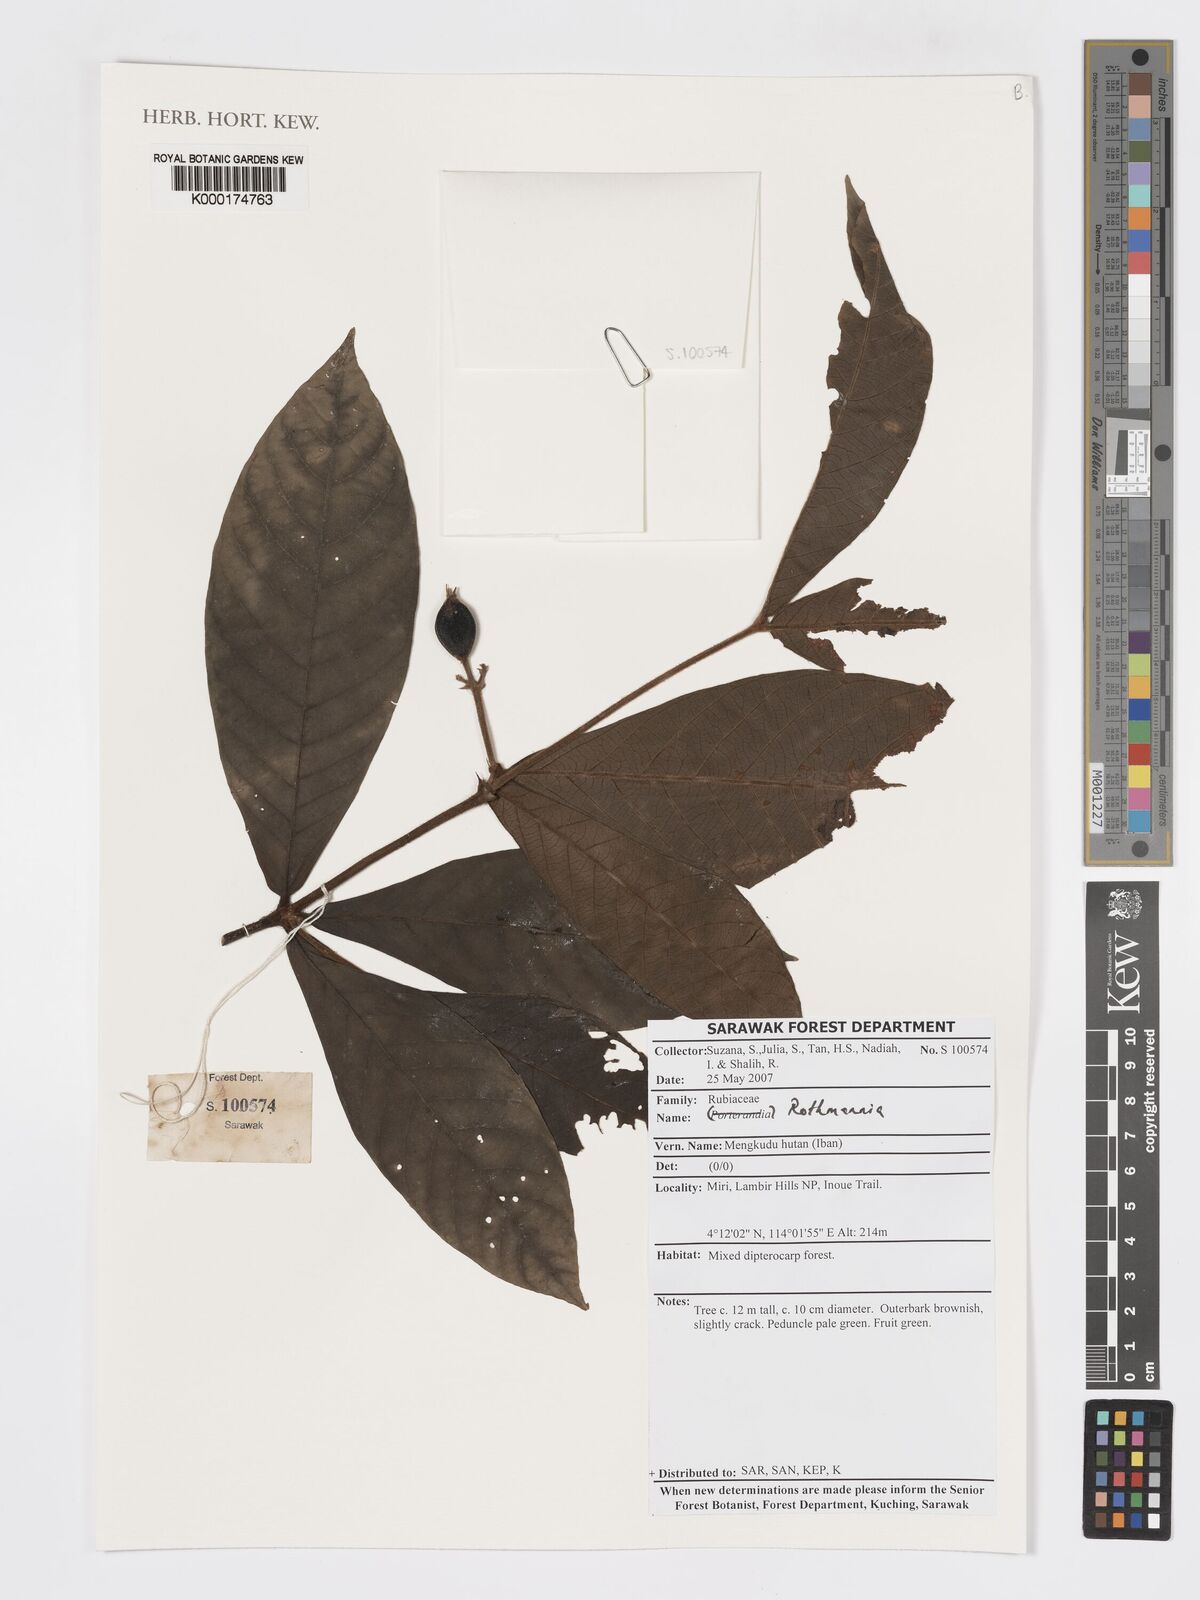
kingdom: Plantae
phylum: Tracheophyta
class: Magnoliopsida
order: Gentianales
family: Rubiaceae
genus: Ridsdalea
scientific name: Ridsdalea
